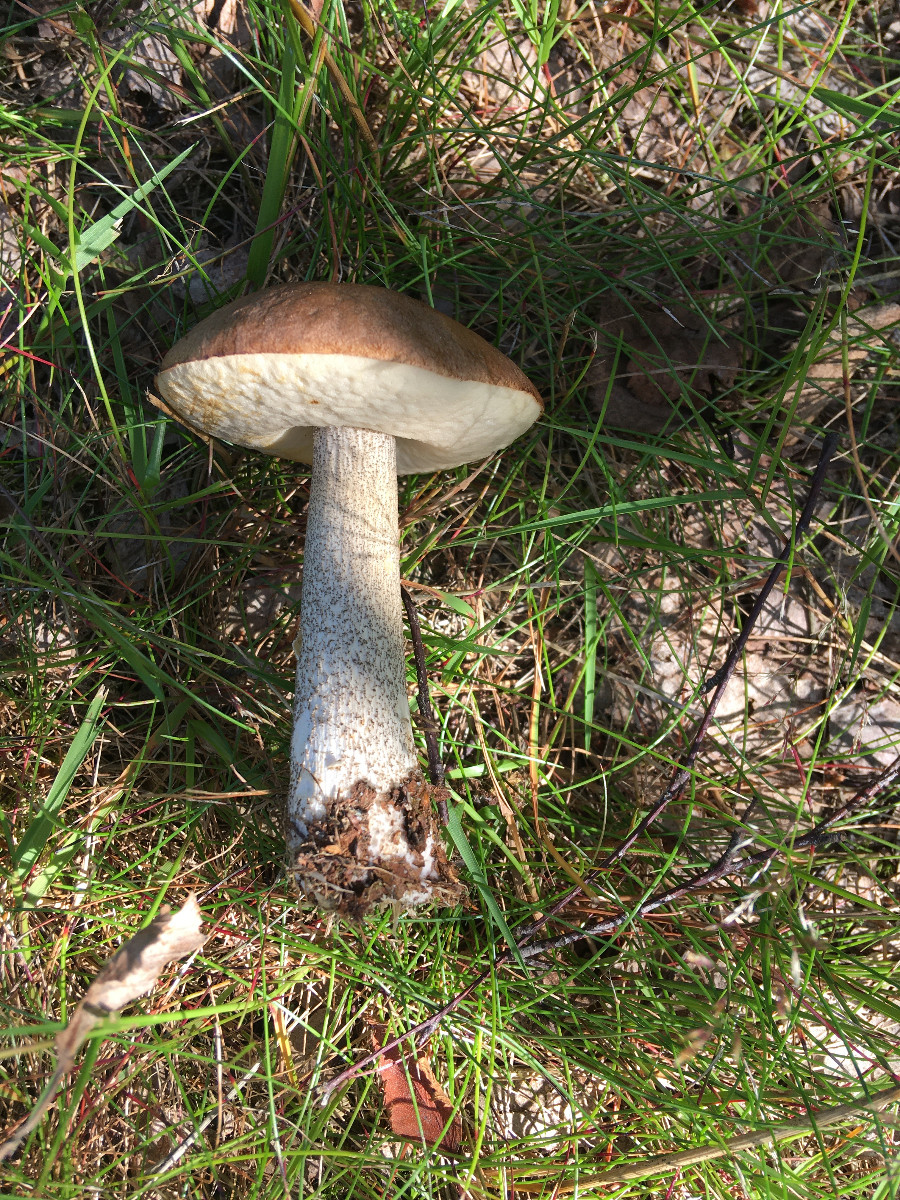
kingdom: Fungi
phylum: Basidiomycota
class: Agaricomycetes
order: Boletales
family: Boletaceae
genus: Leccinum
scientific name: Leccinum scabrum
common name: brun skælrørhat
